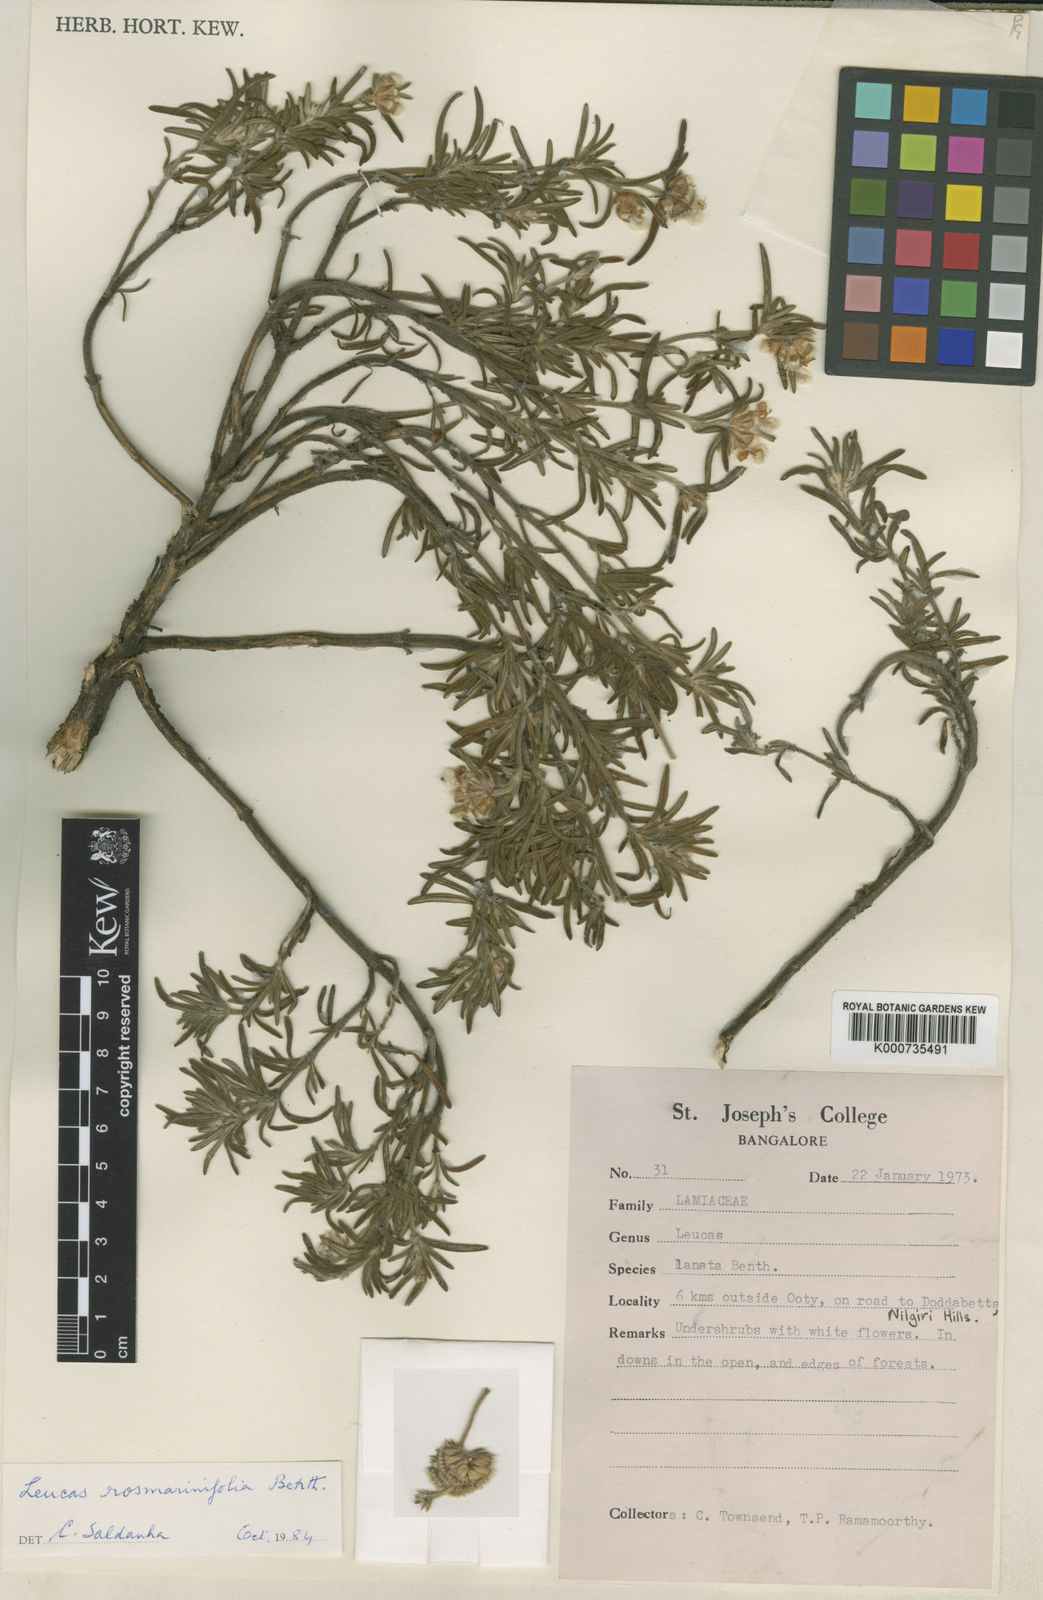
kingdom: Plantae
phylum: Tracheophyta
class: Magnoliopsida
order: Lamiales
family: Lamiaceae
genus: Leucas
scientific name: Leucas rosmarinifolia
